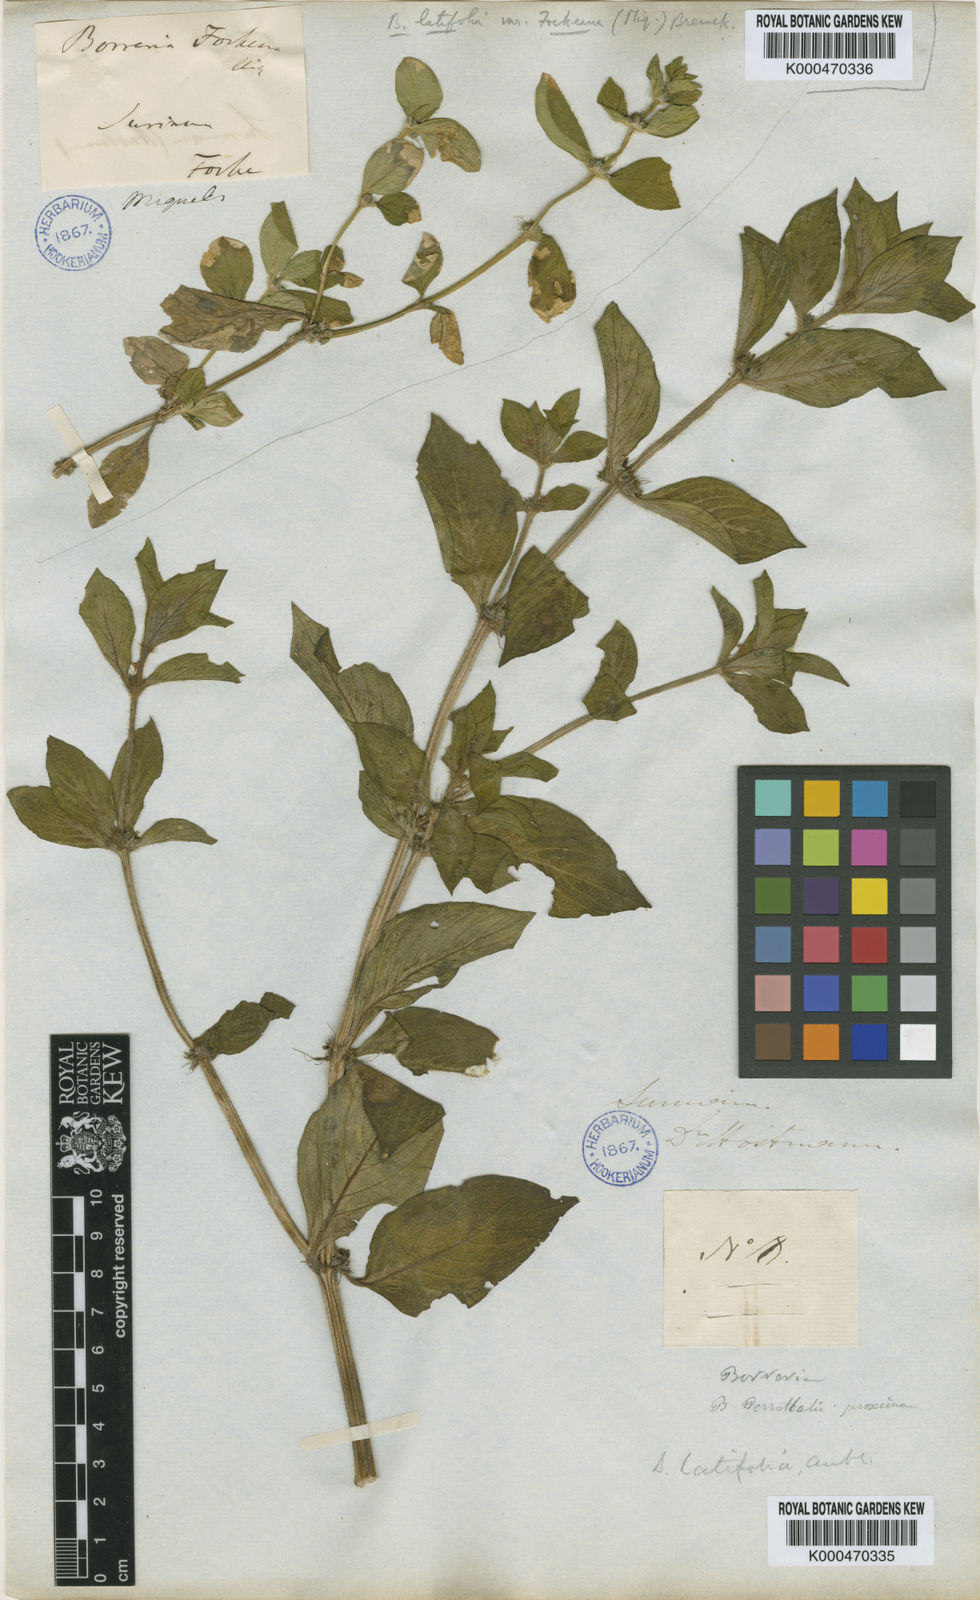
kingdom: Plantae
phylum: Tracheophyta
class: Magnoliopsida
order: Gentianales
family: Rubiaceae
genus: Spermacoce
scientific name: Spermacoce alata
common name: Winged false buttonweed
